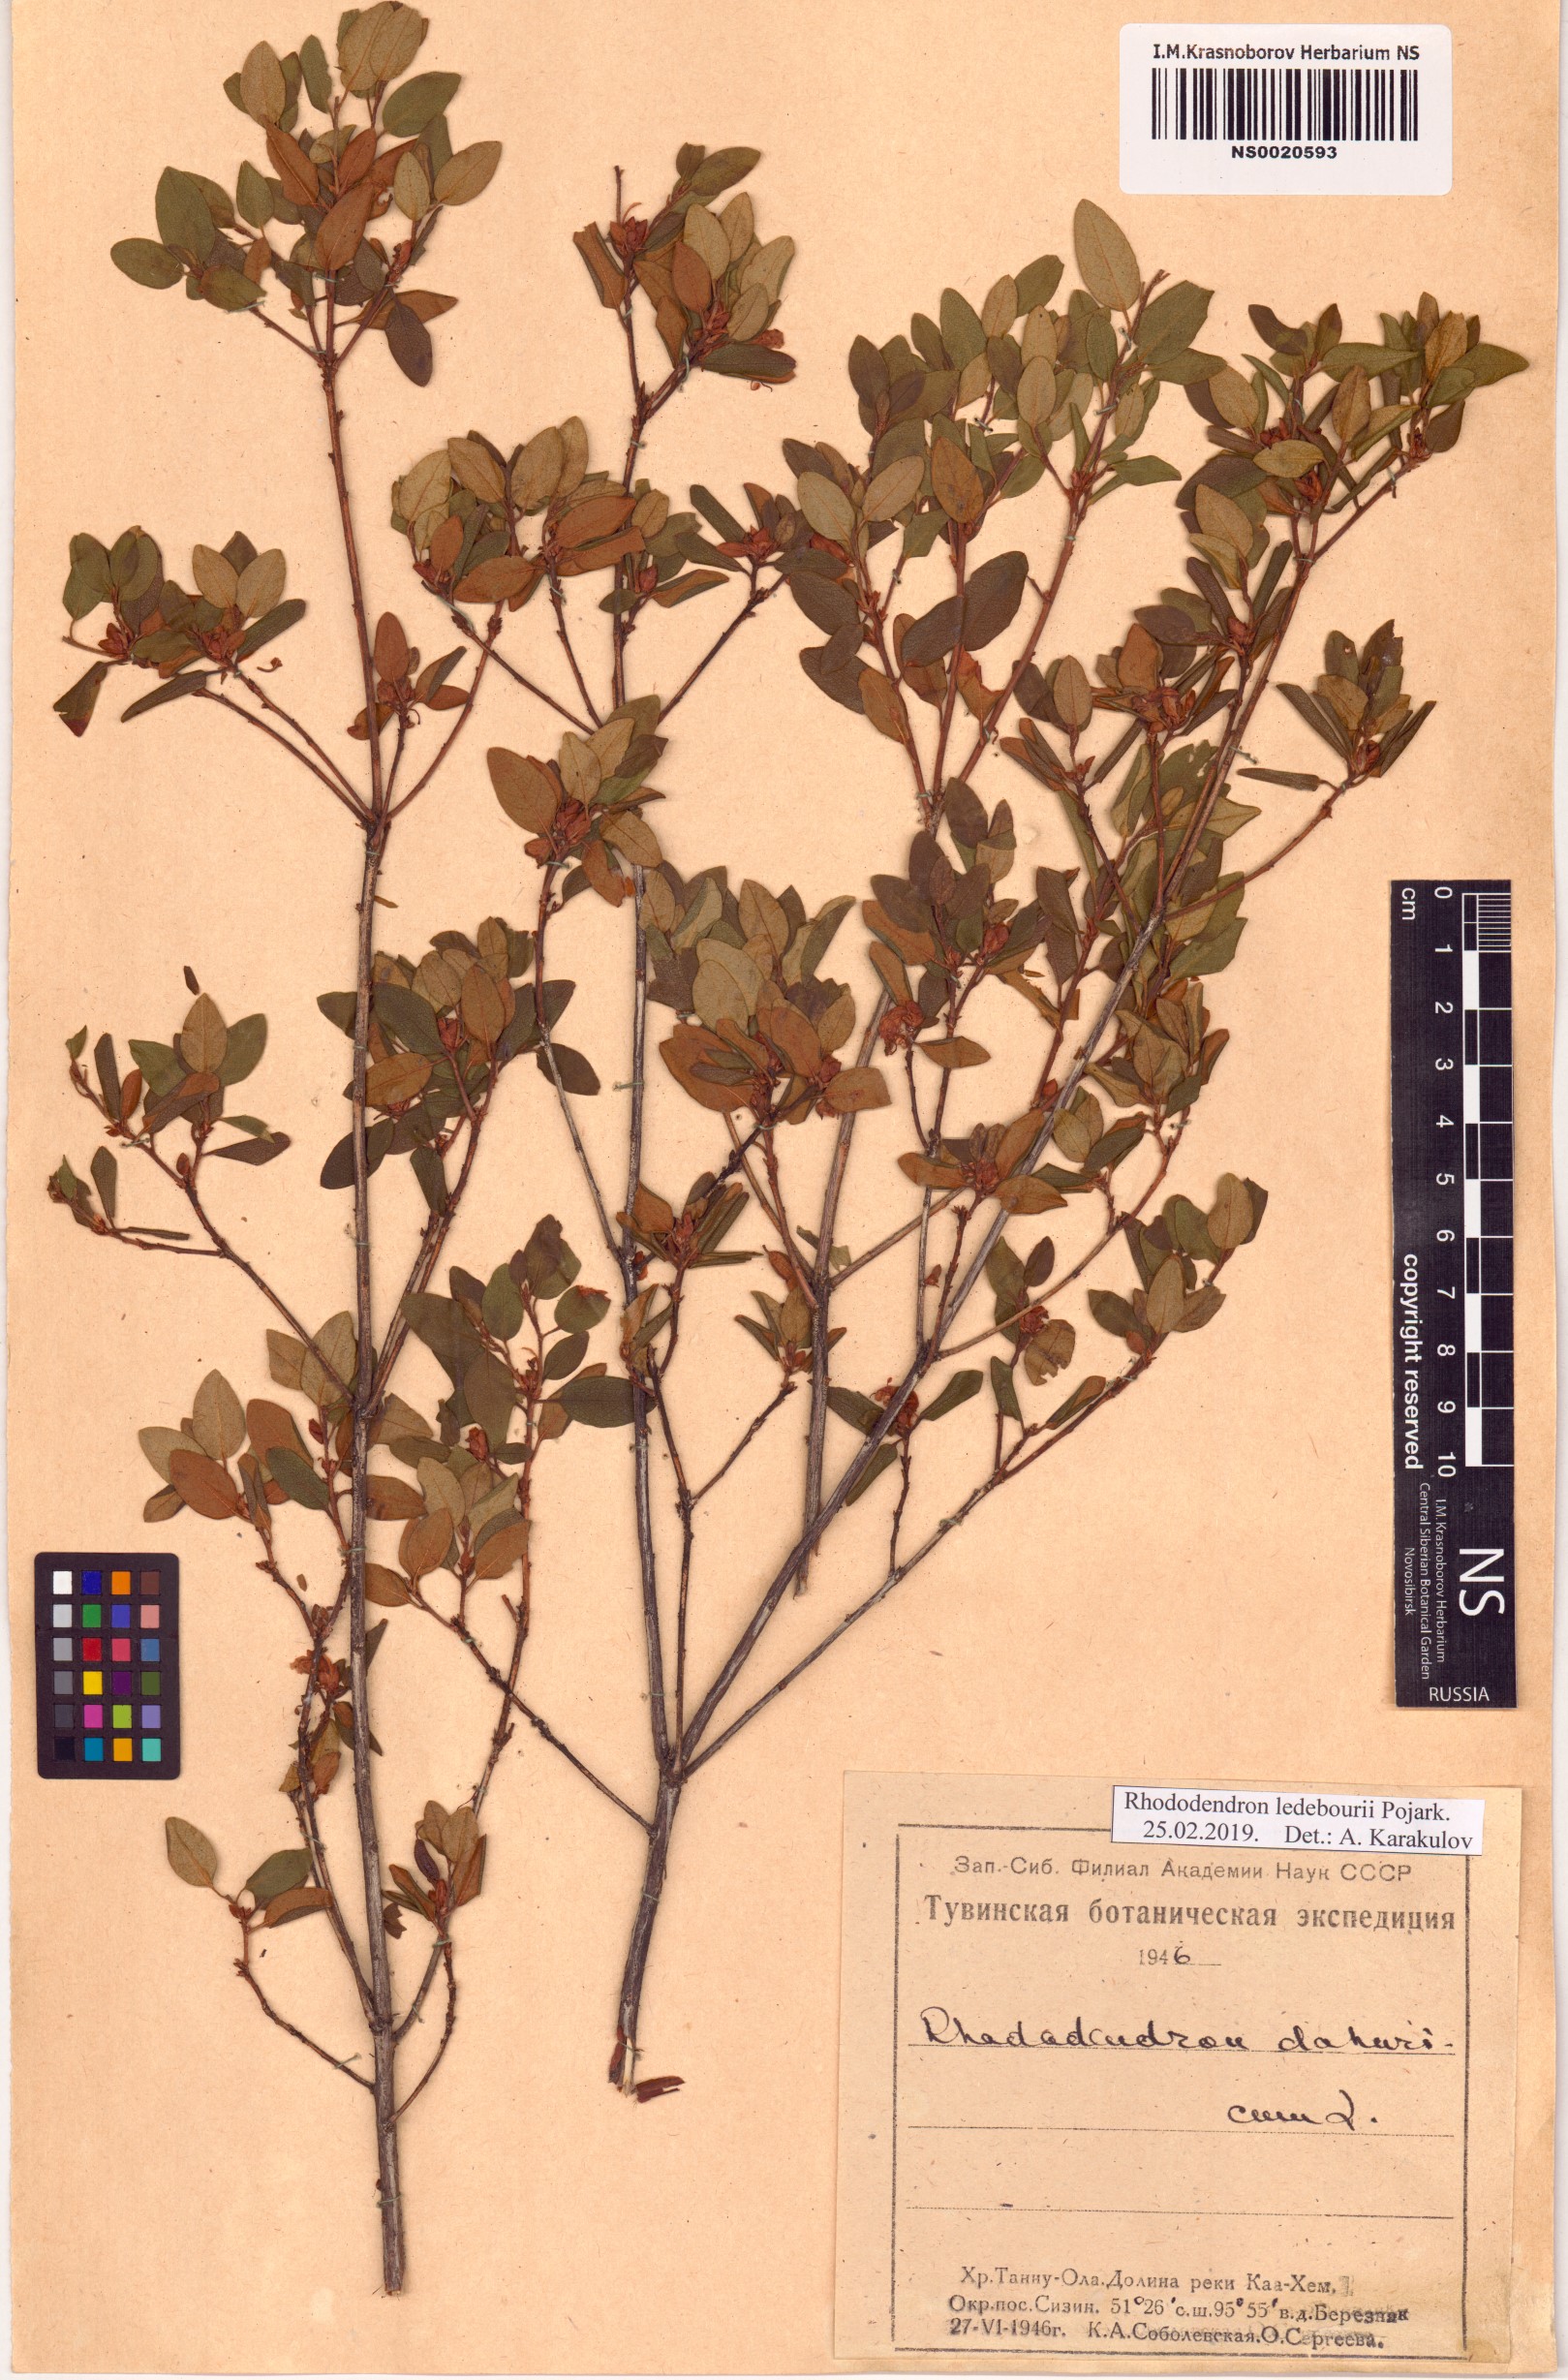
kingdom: Plantae
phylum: Tracheophyta
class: Magnoliopsida
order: Ericales
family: Ericaceae
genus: Rhododendron
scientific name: Rhododendron dauricum
